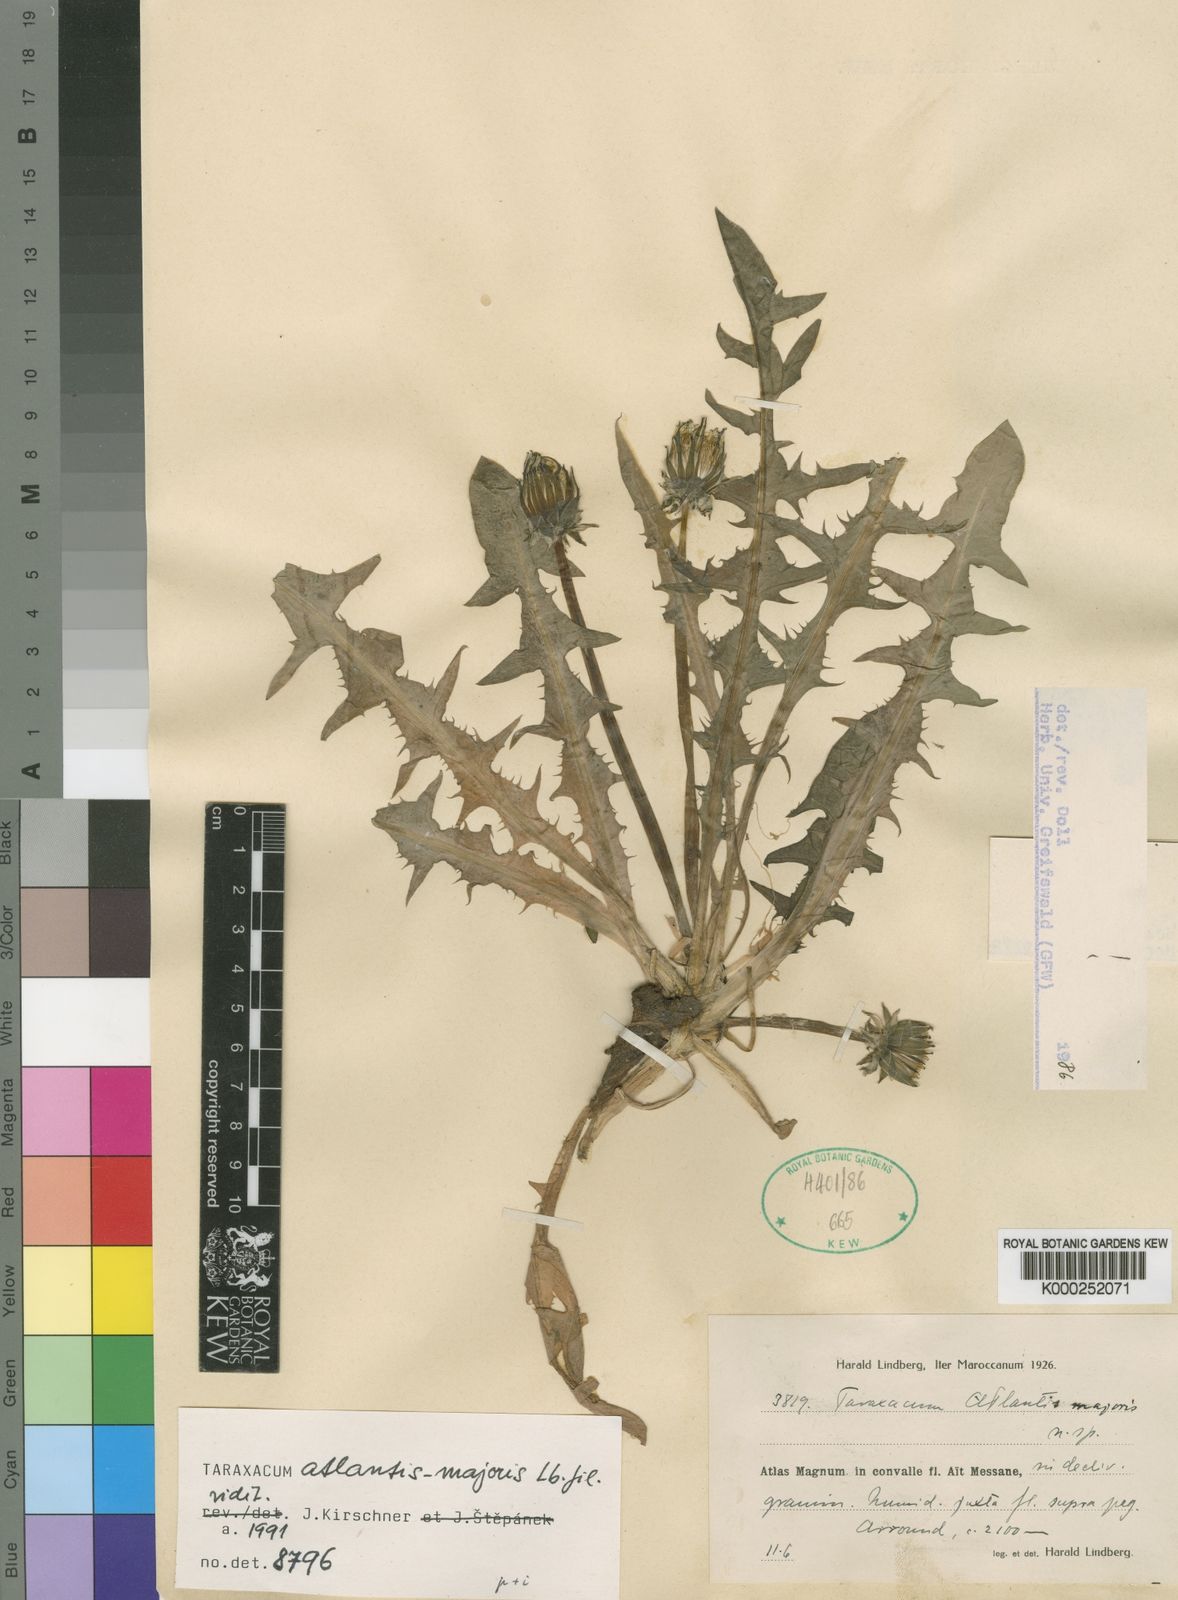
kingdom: Plantae
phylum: Tracheophyta
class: Magnoliopsida
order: Asterales
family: Asteraceae
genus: Taraxacum
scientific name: Taraxacum atlantis-majoris
